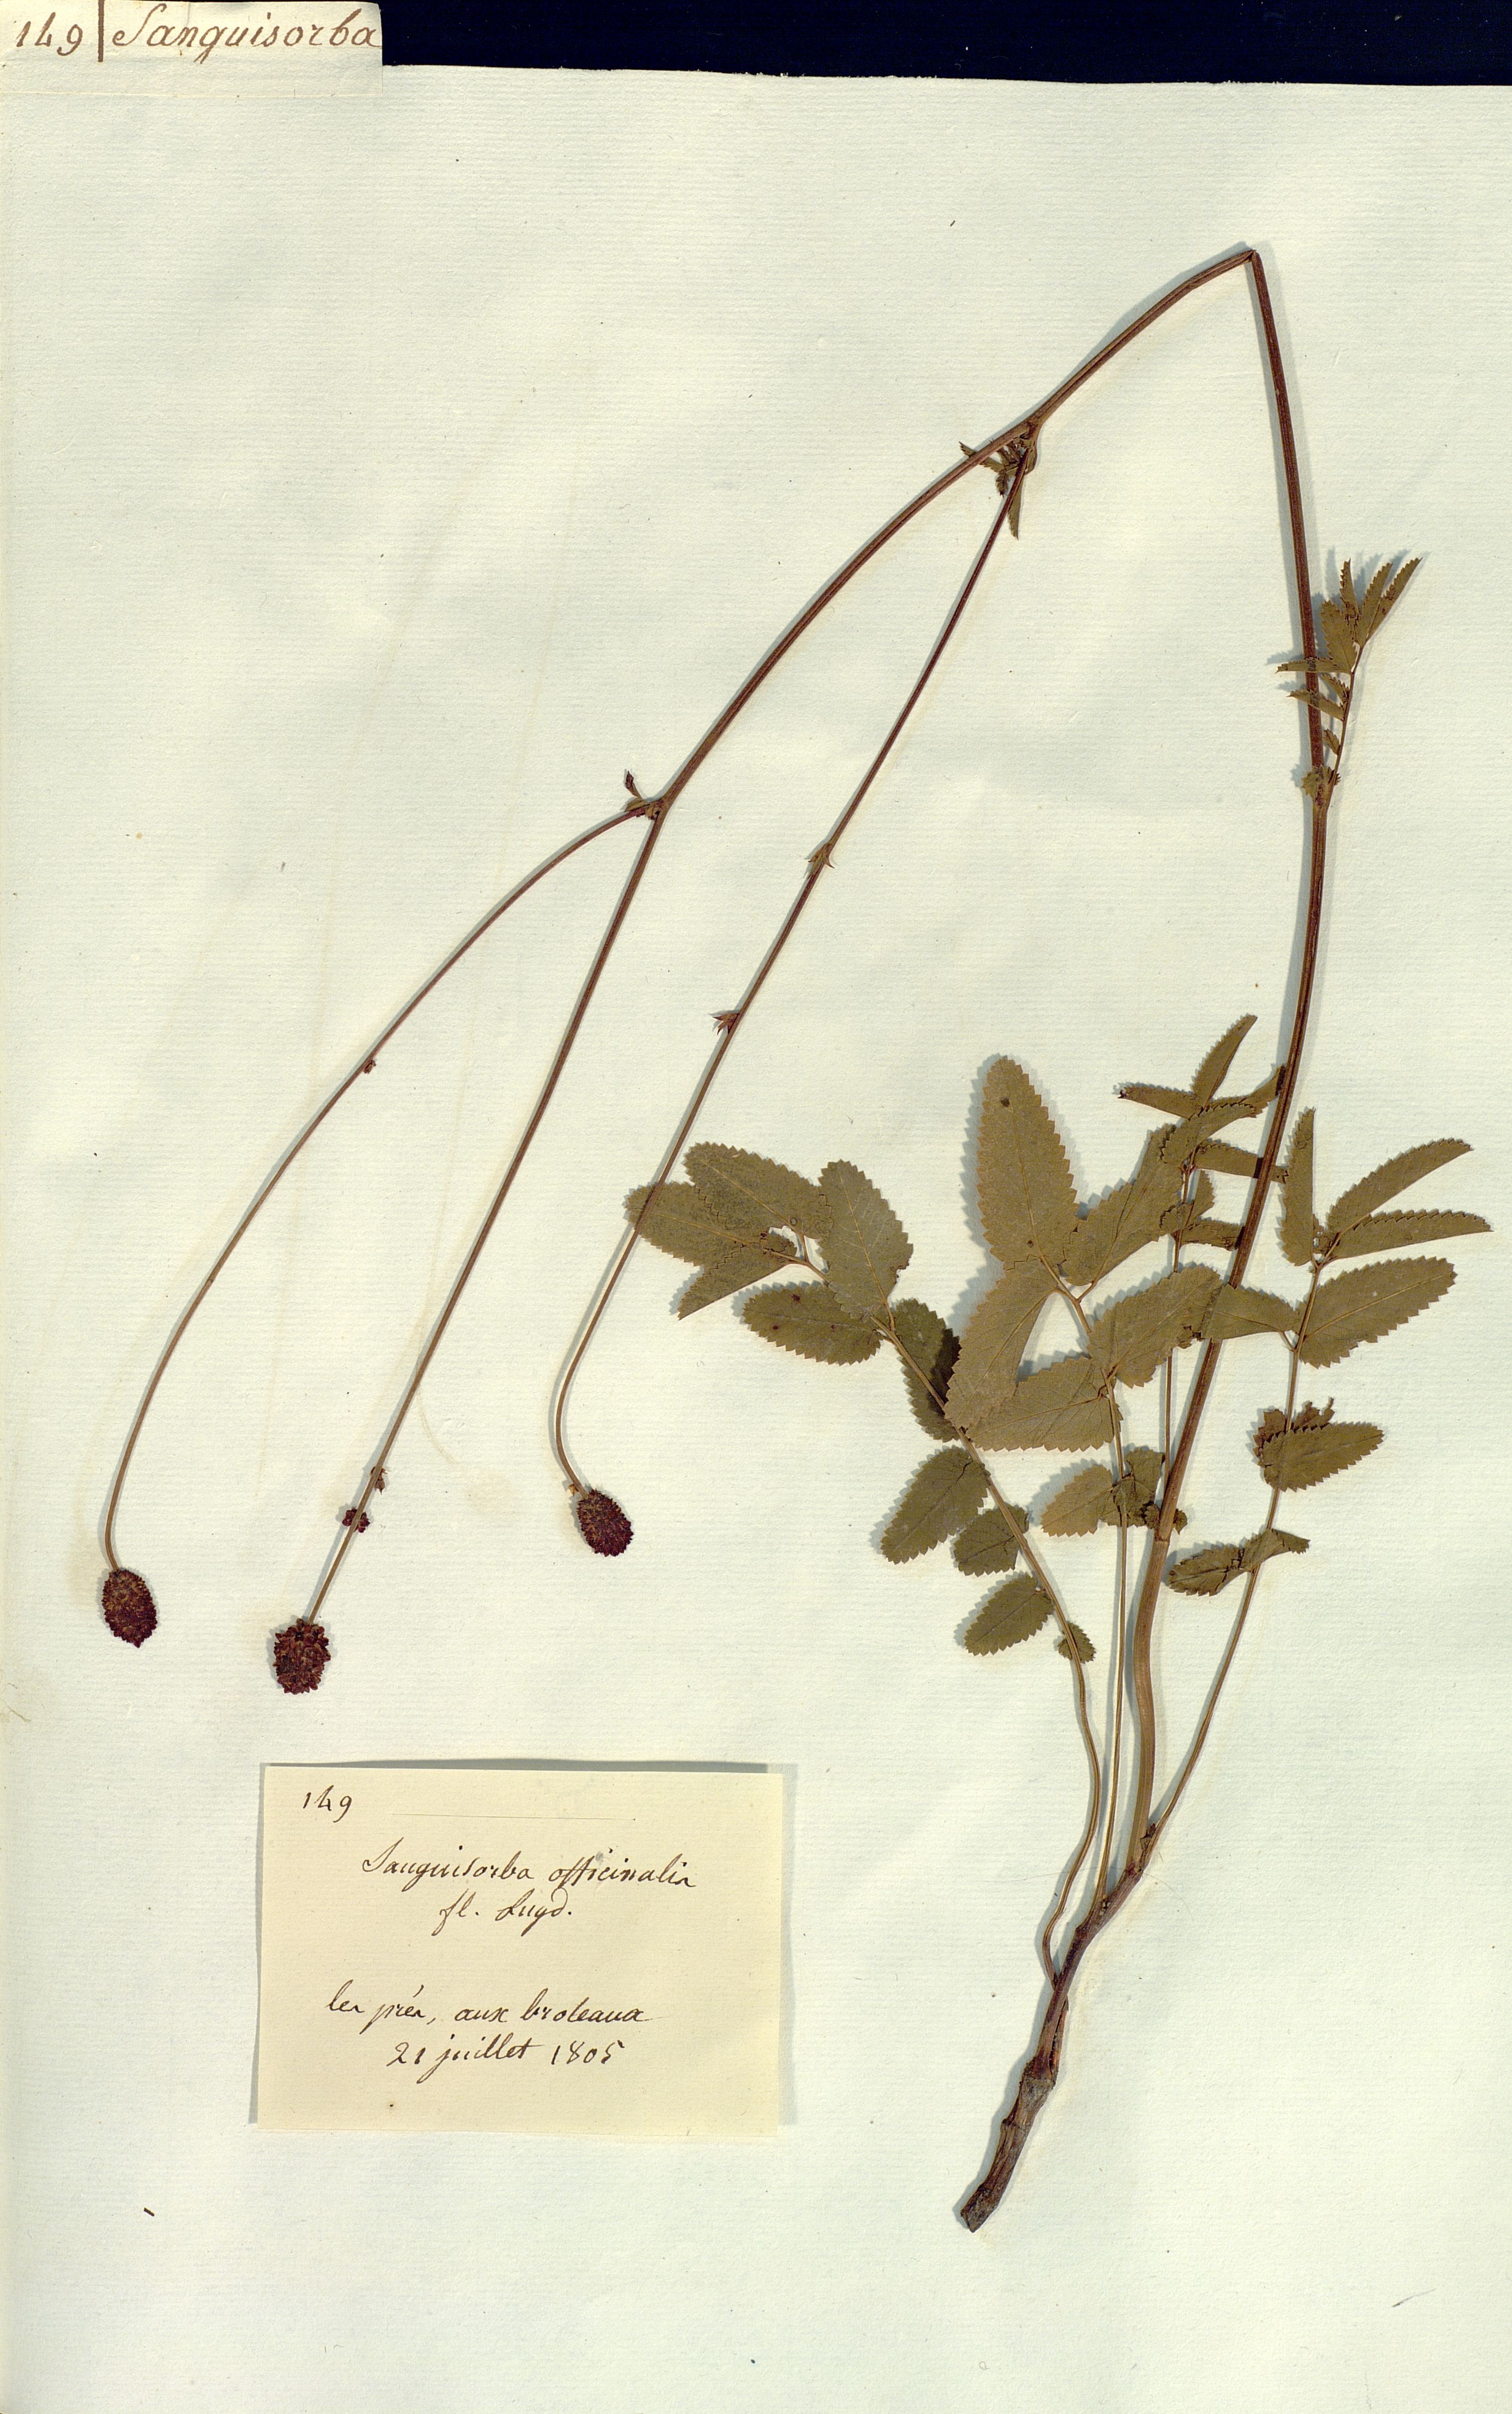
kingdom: Plantae
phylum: Tracheophyta
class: Magnoliopsida
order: Rosales
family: Rosaceae
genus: Sanguisorba
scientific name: Sanguisorba officinalis
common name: Great burnet
